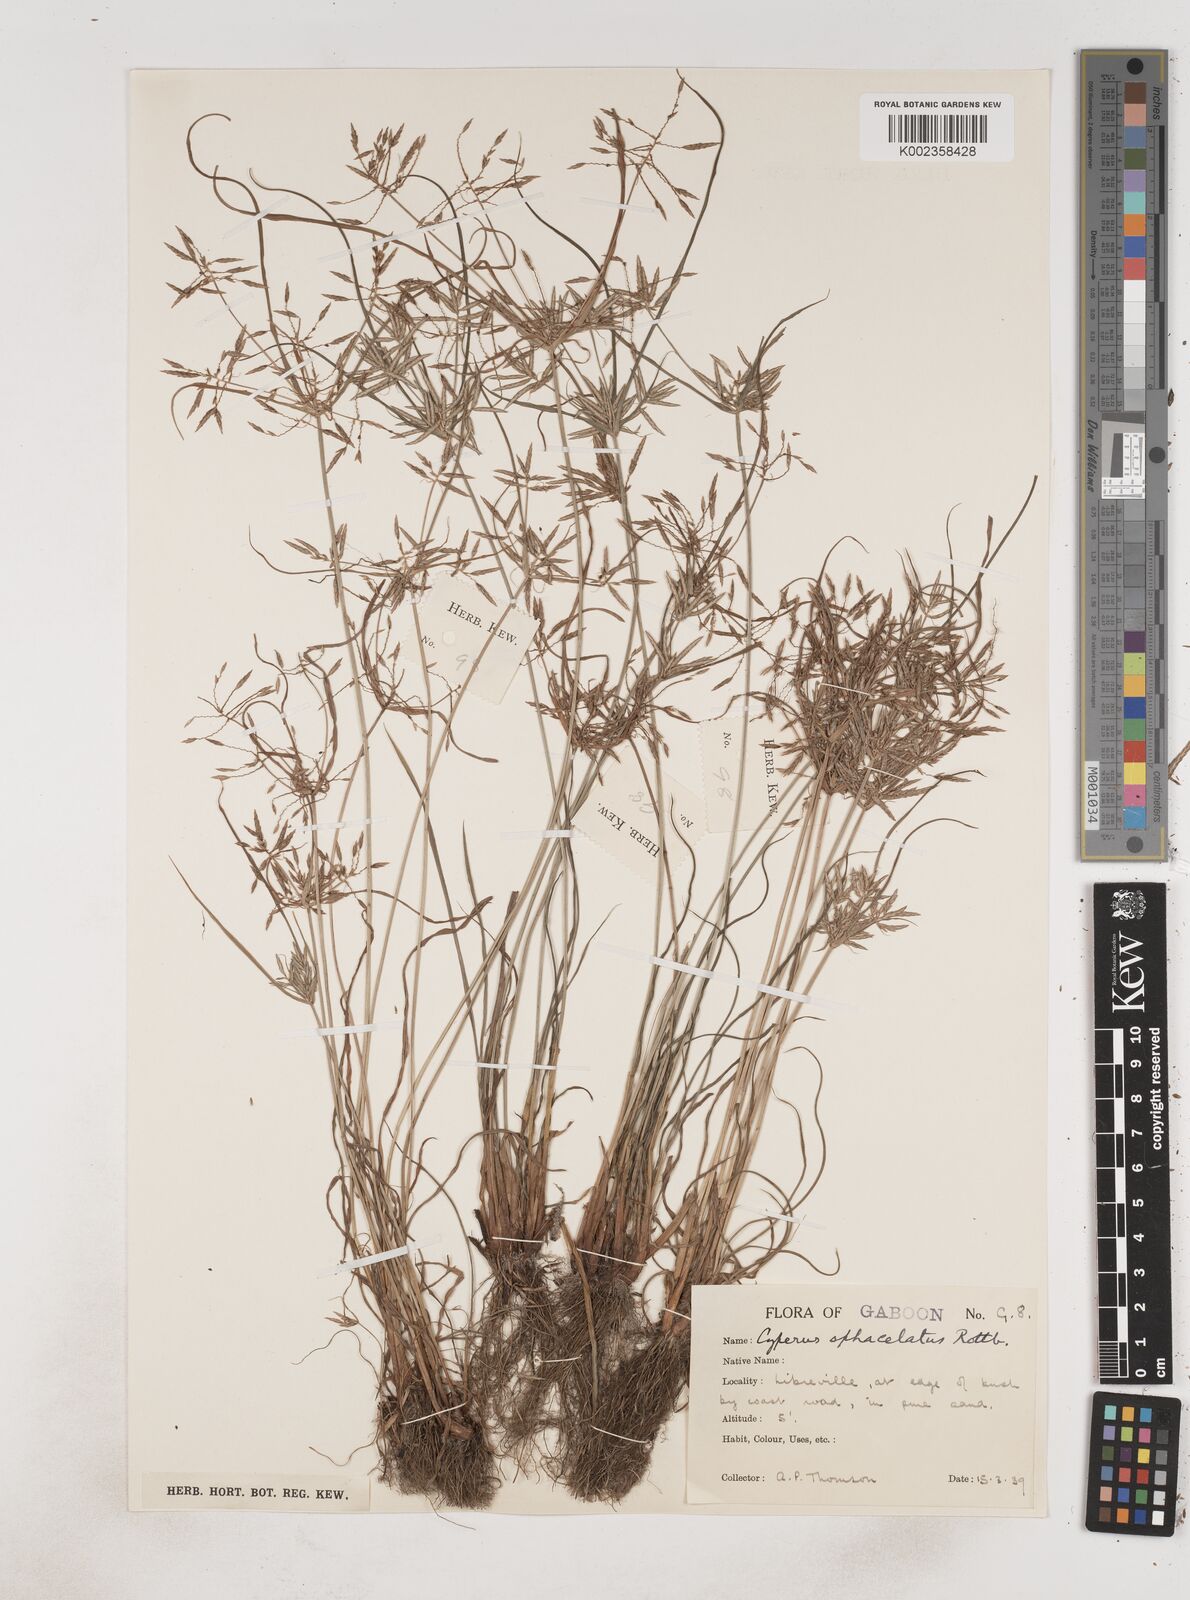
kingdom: Plantae
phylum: Tracheophyta
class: Liliopsida
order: Poales
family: Cyperaceae
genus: Cyperus
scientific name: Cyperus sphacelatus
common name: Roadside flatsedge
